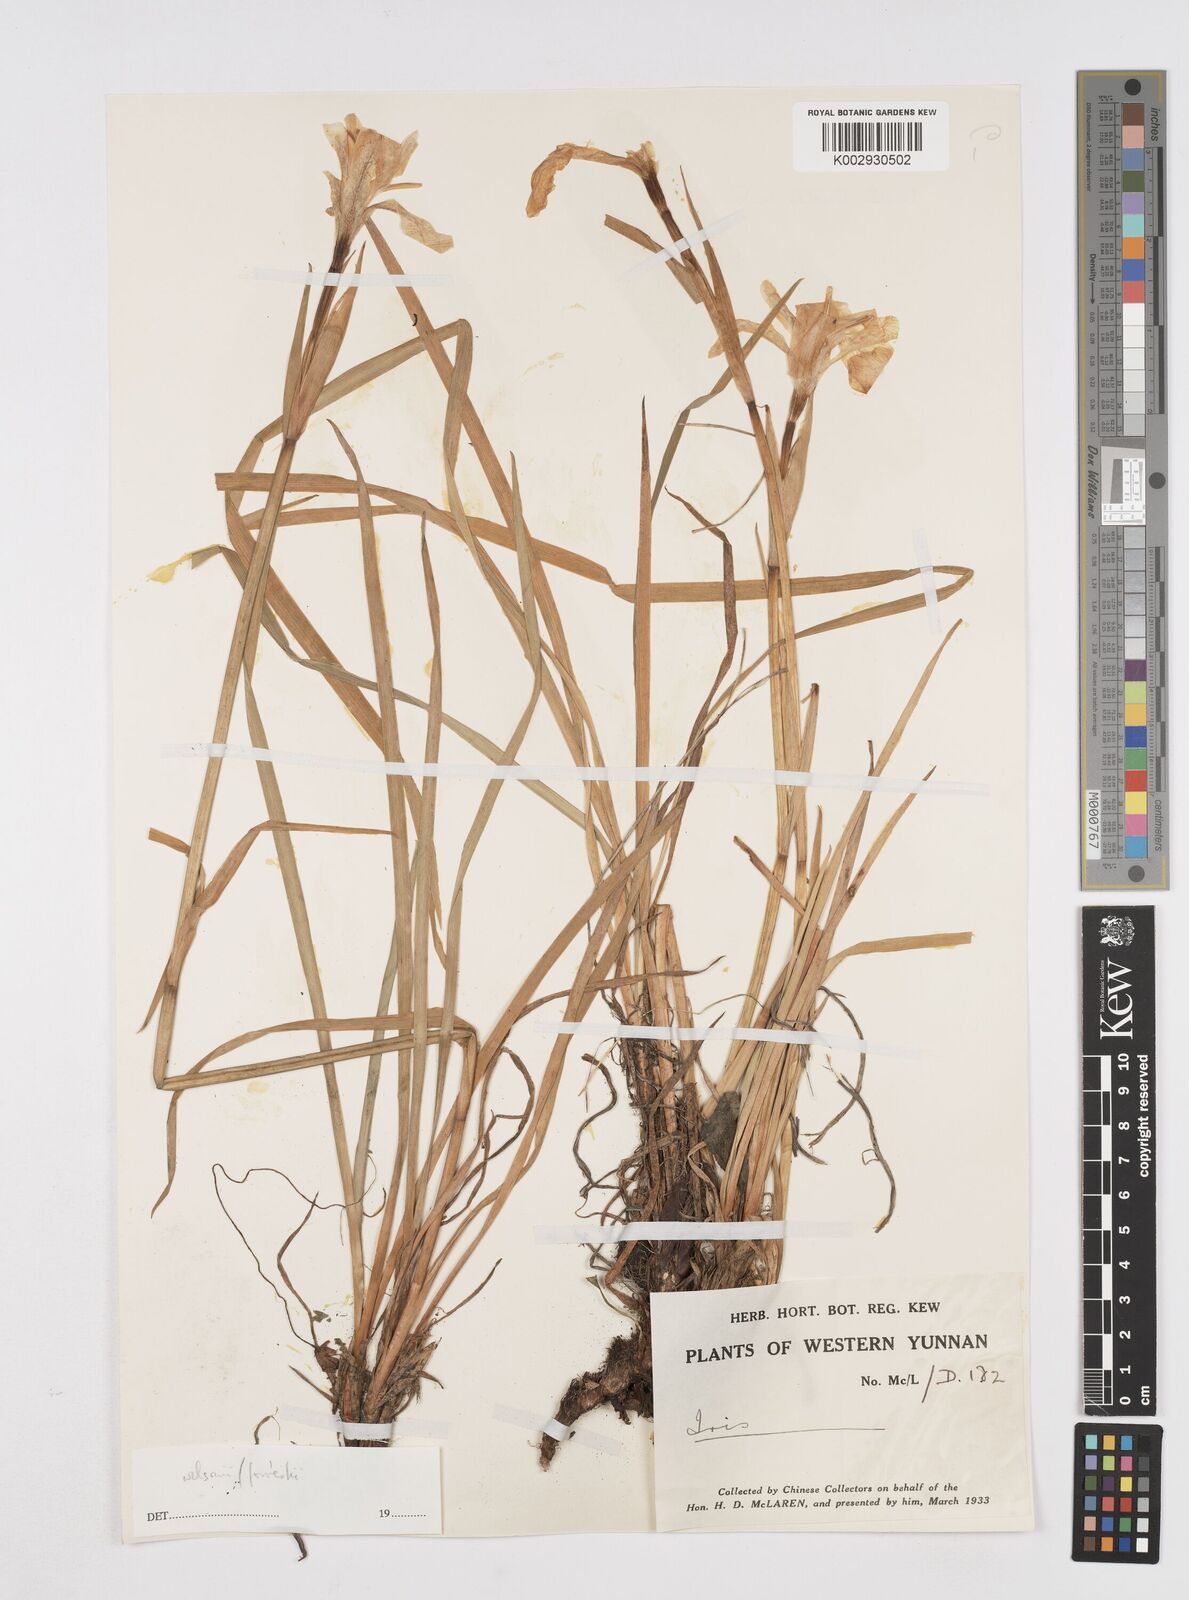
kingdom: Plantae
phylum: Tracheophyta
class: Liliopsida
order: Asparagales
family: Iridaceae
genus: Iris
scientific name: Iris wilsonii
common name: Yellow-flower iris
